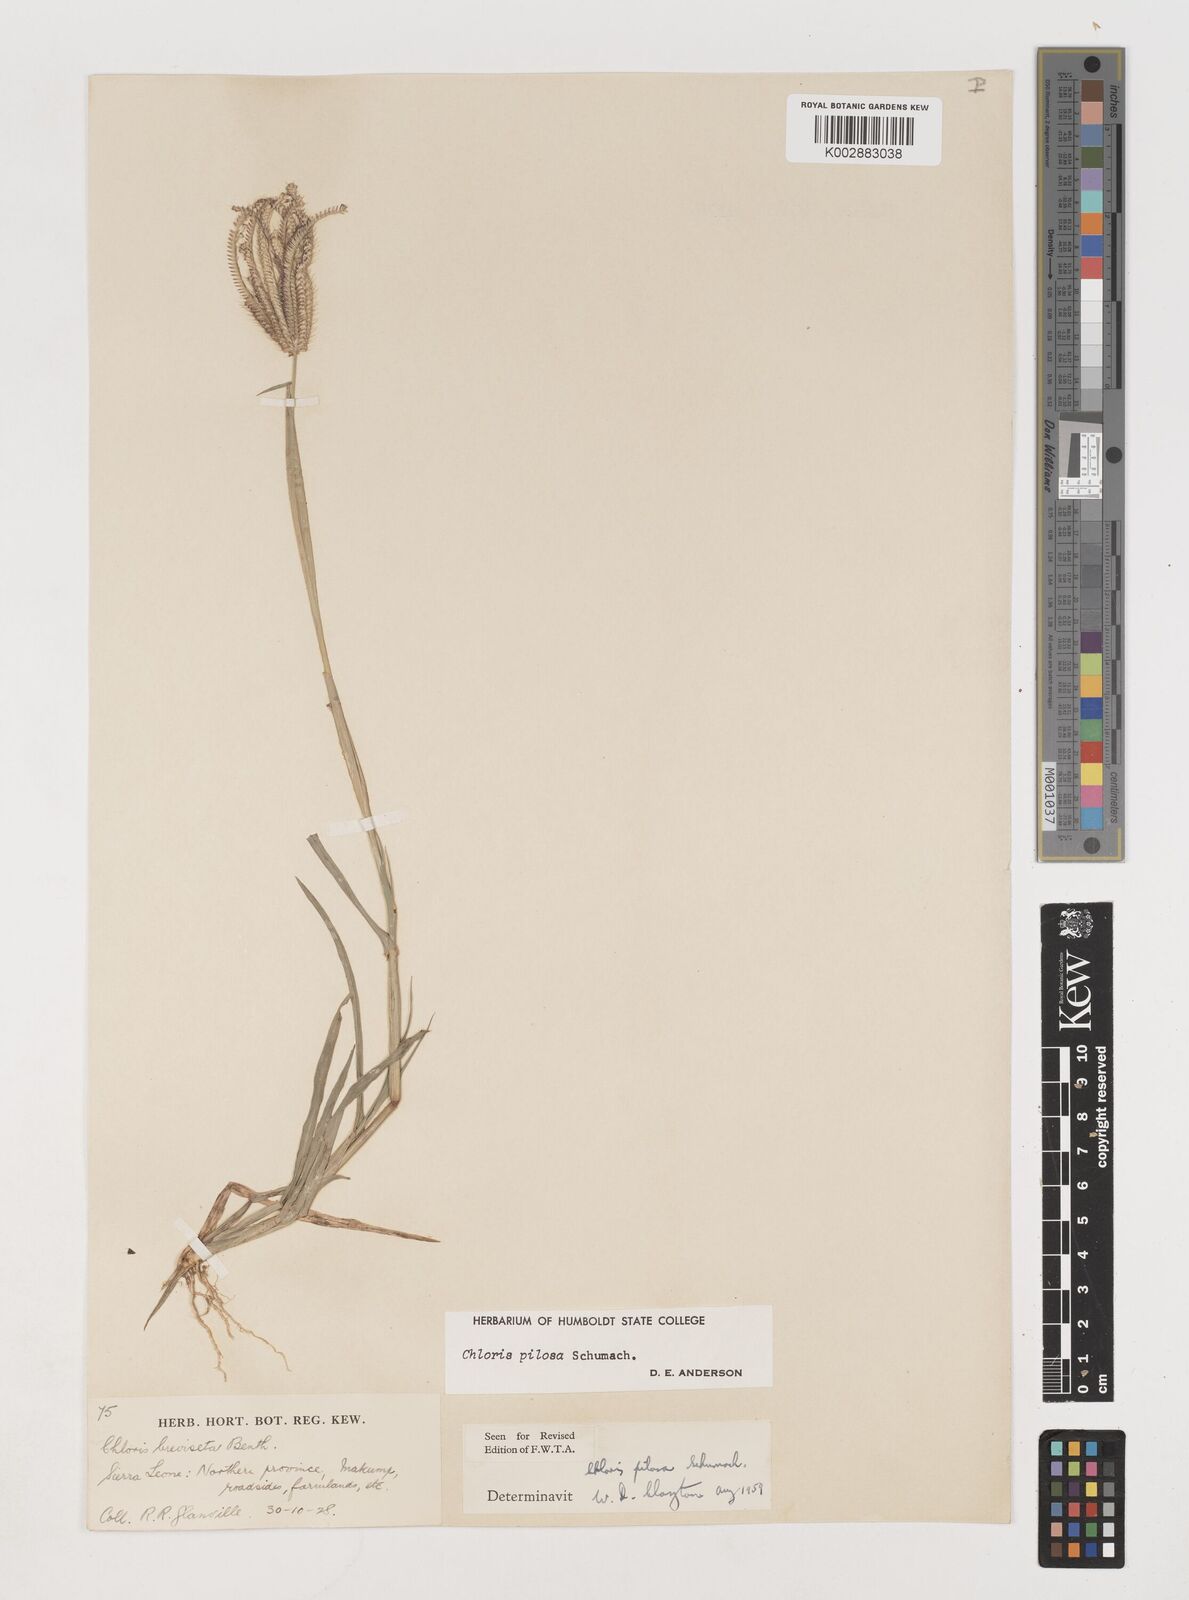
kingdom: Plantae
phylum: Tracheophyta
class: Liliopsida
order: Poales
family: Poaceae
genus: Chloris
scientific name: Chloris pilosa
